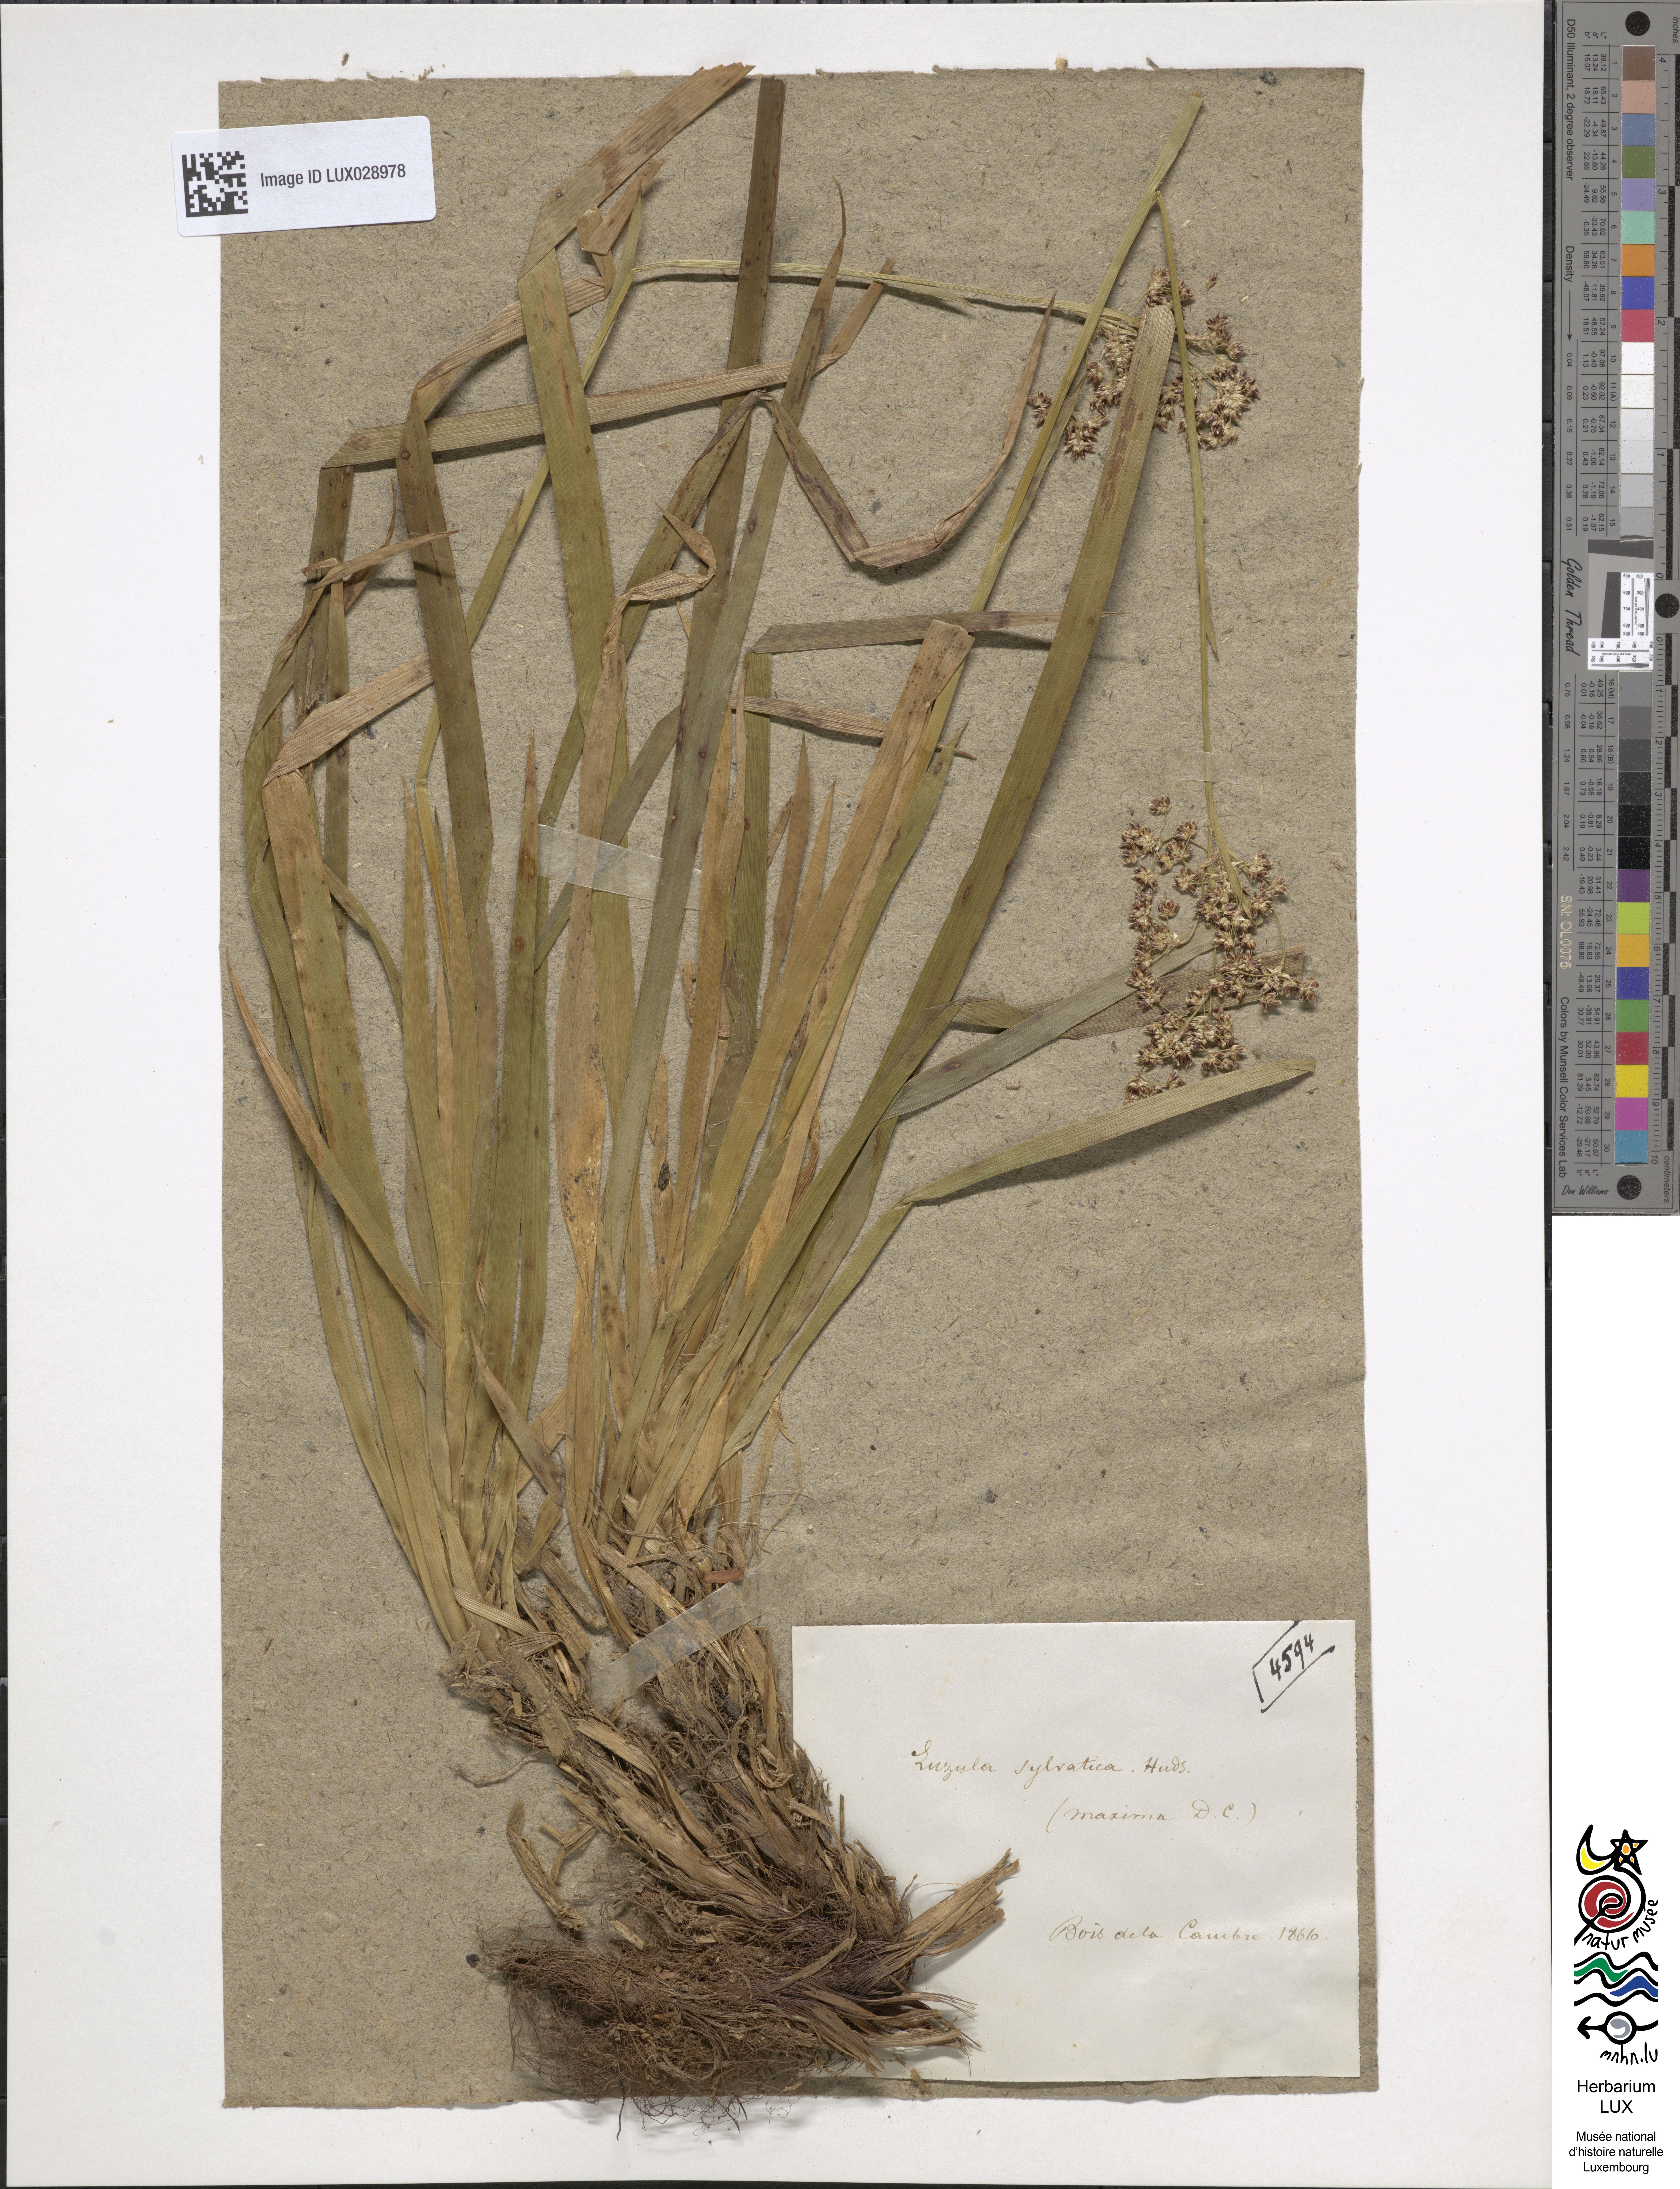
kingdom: Plantae
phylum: Tracheophyta
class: Liliopsida
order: Poales
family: Juncaceae
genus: Luzula
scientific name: Luzula sylvatica
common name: Great wood-rush
